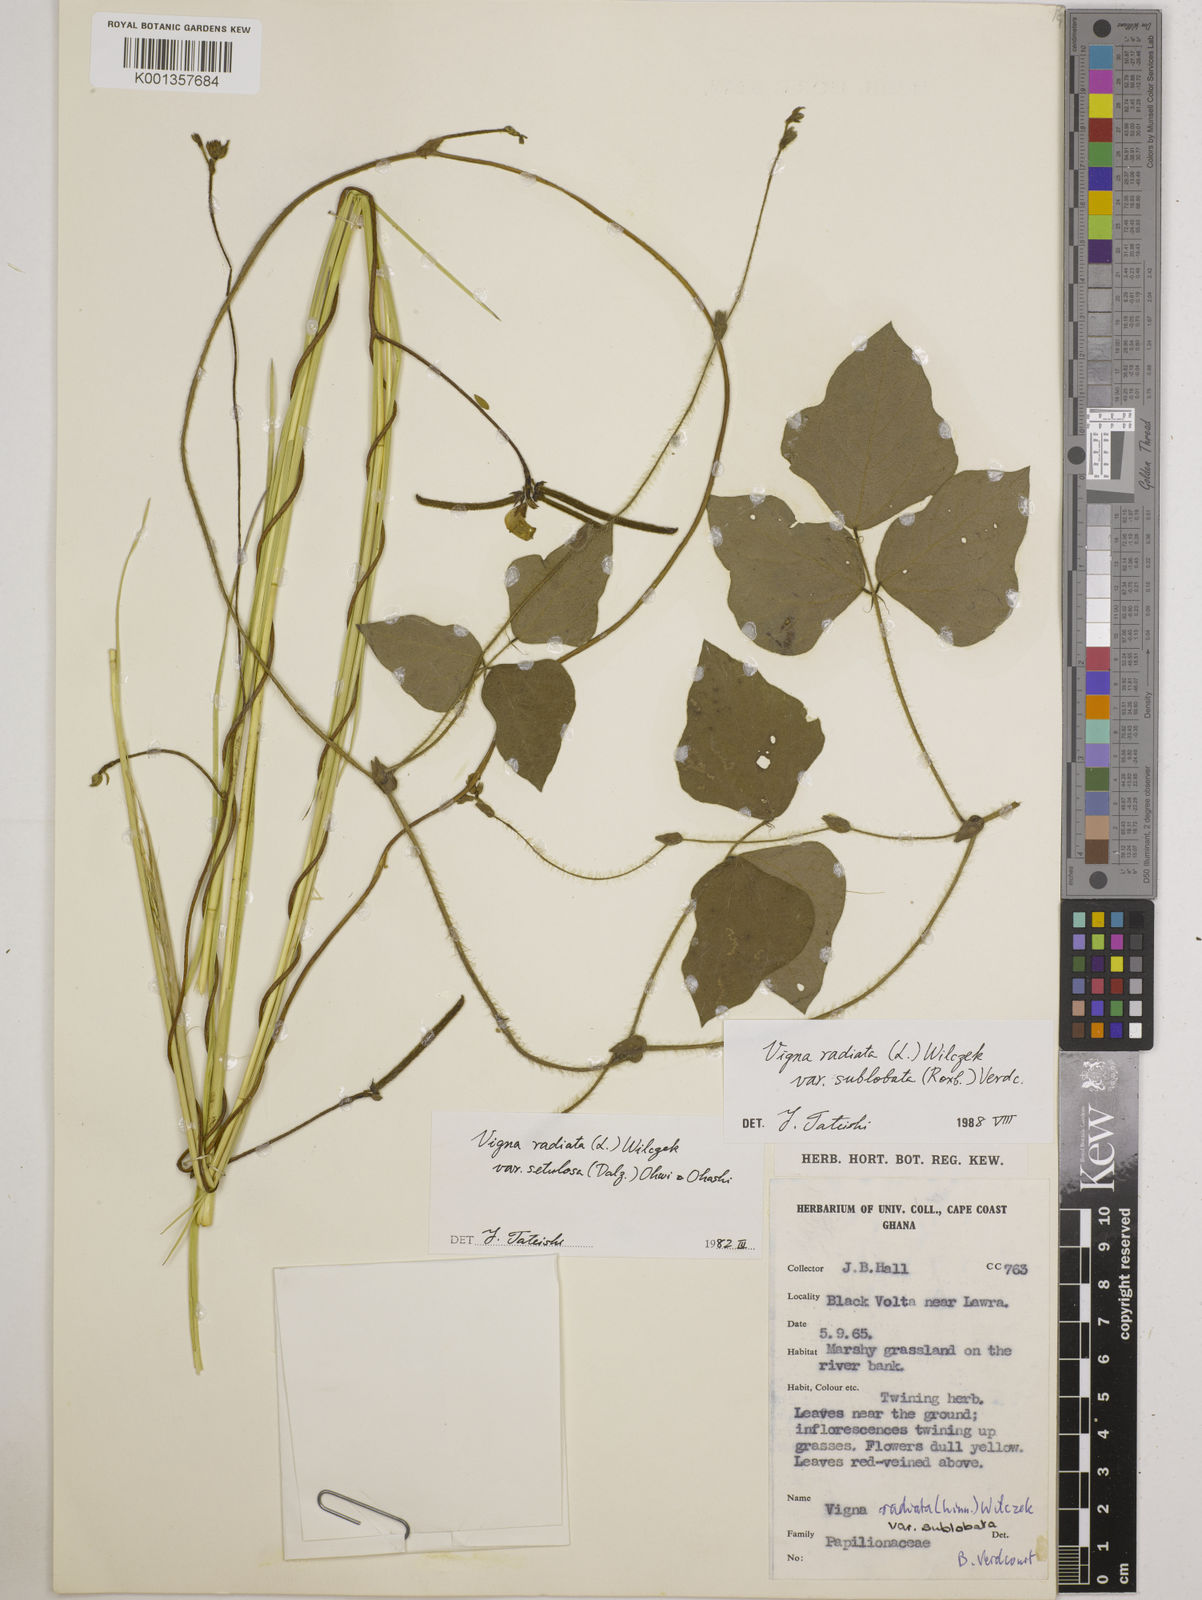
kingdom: Plantae
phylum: Tracheophyta
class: Magnoliopsida
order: Fabales
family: Fabaceae
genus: Vigna
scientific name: Vigna radiata
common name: Mung-bean
